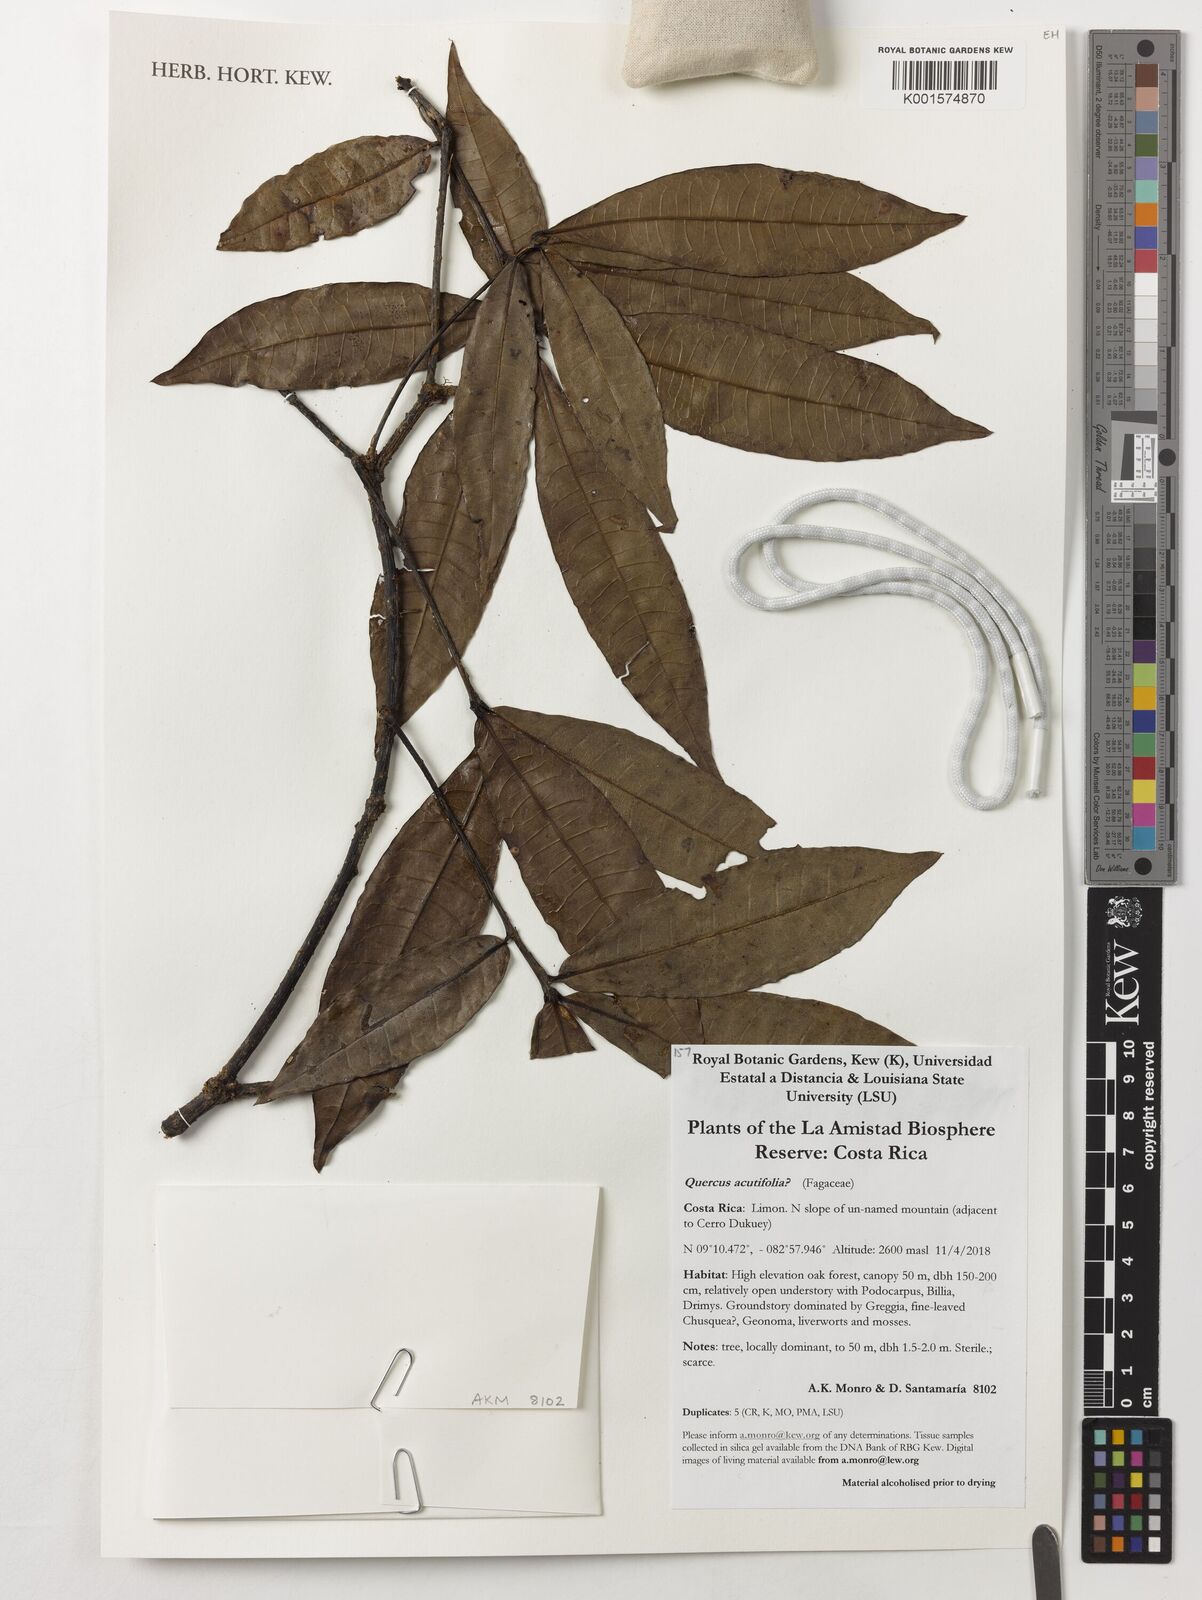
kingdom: Plantae
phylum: Tracheophyta
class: Magnoliopsida
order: Fagales
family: Fagaceae
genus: Quercus
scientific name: Quercus acutifolia
